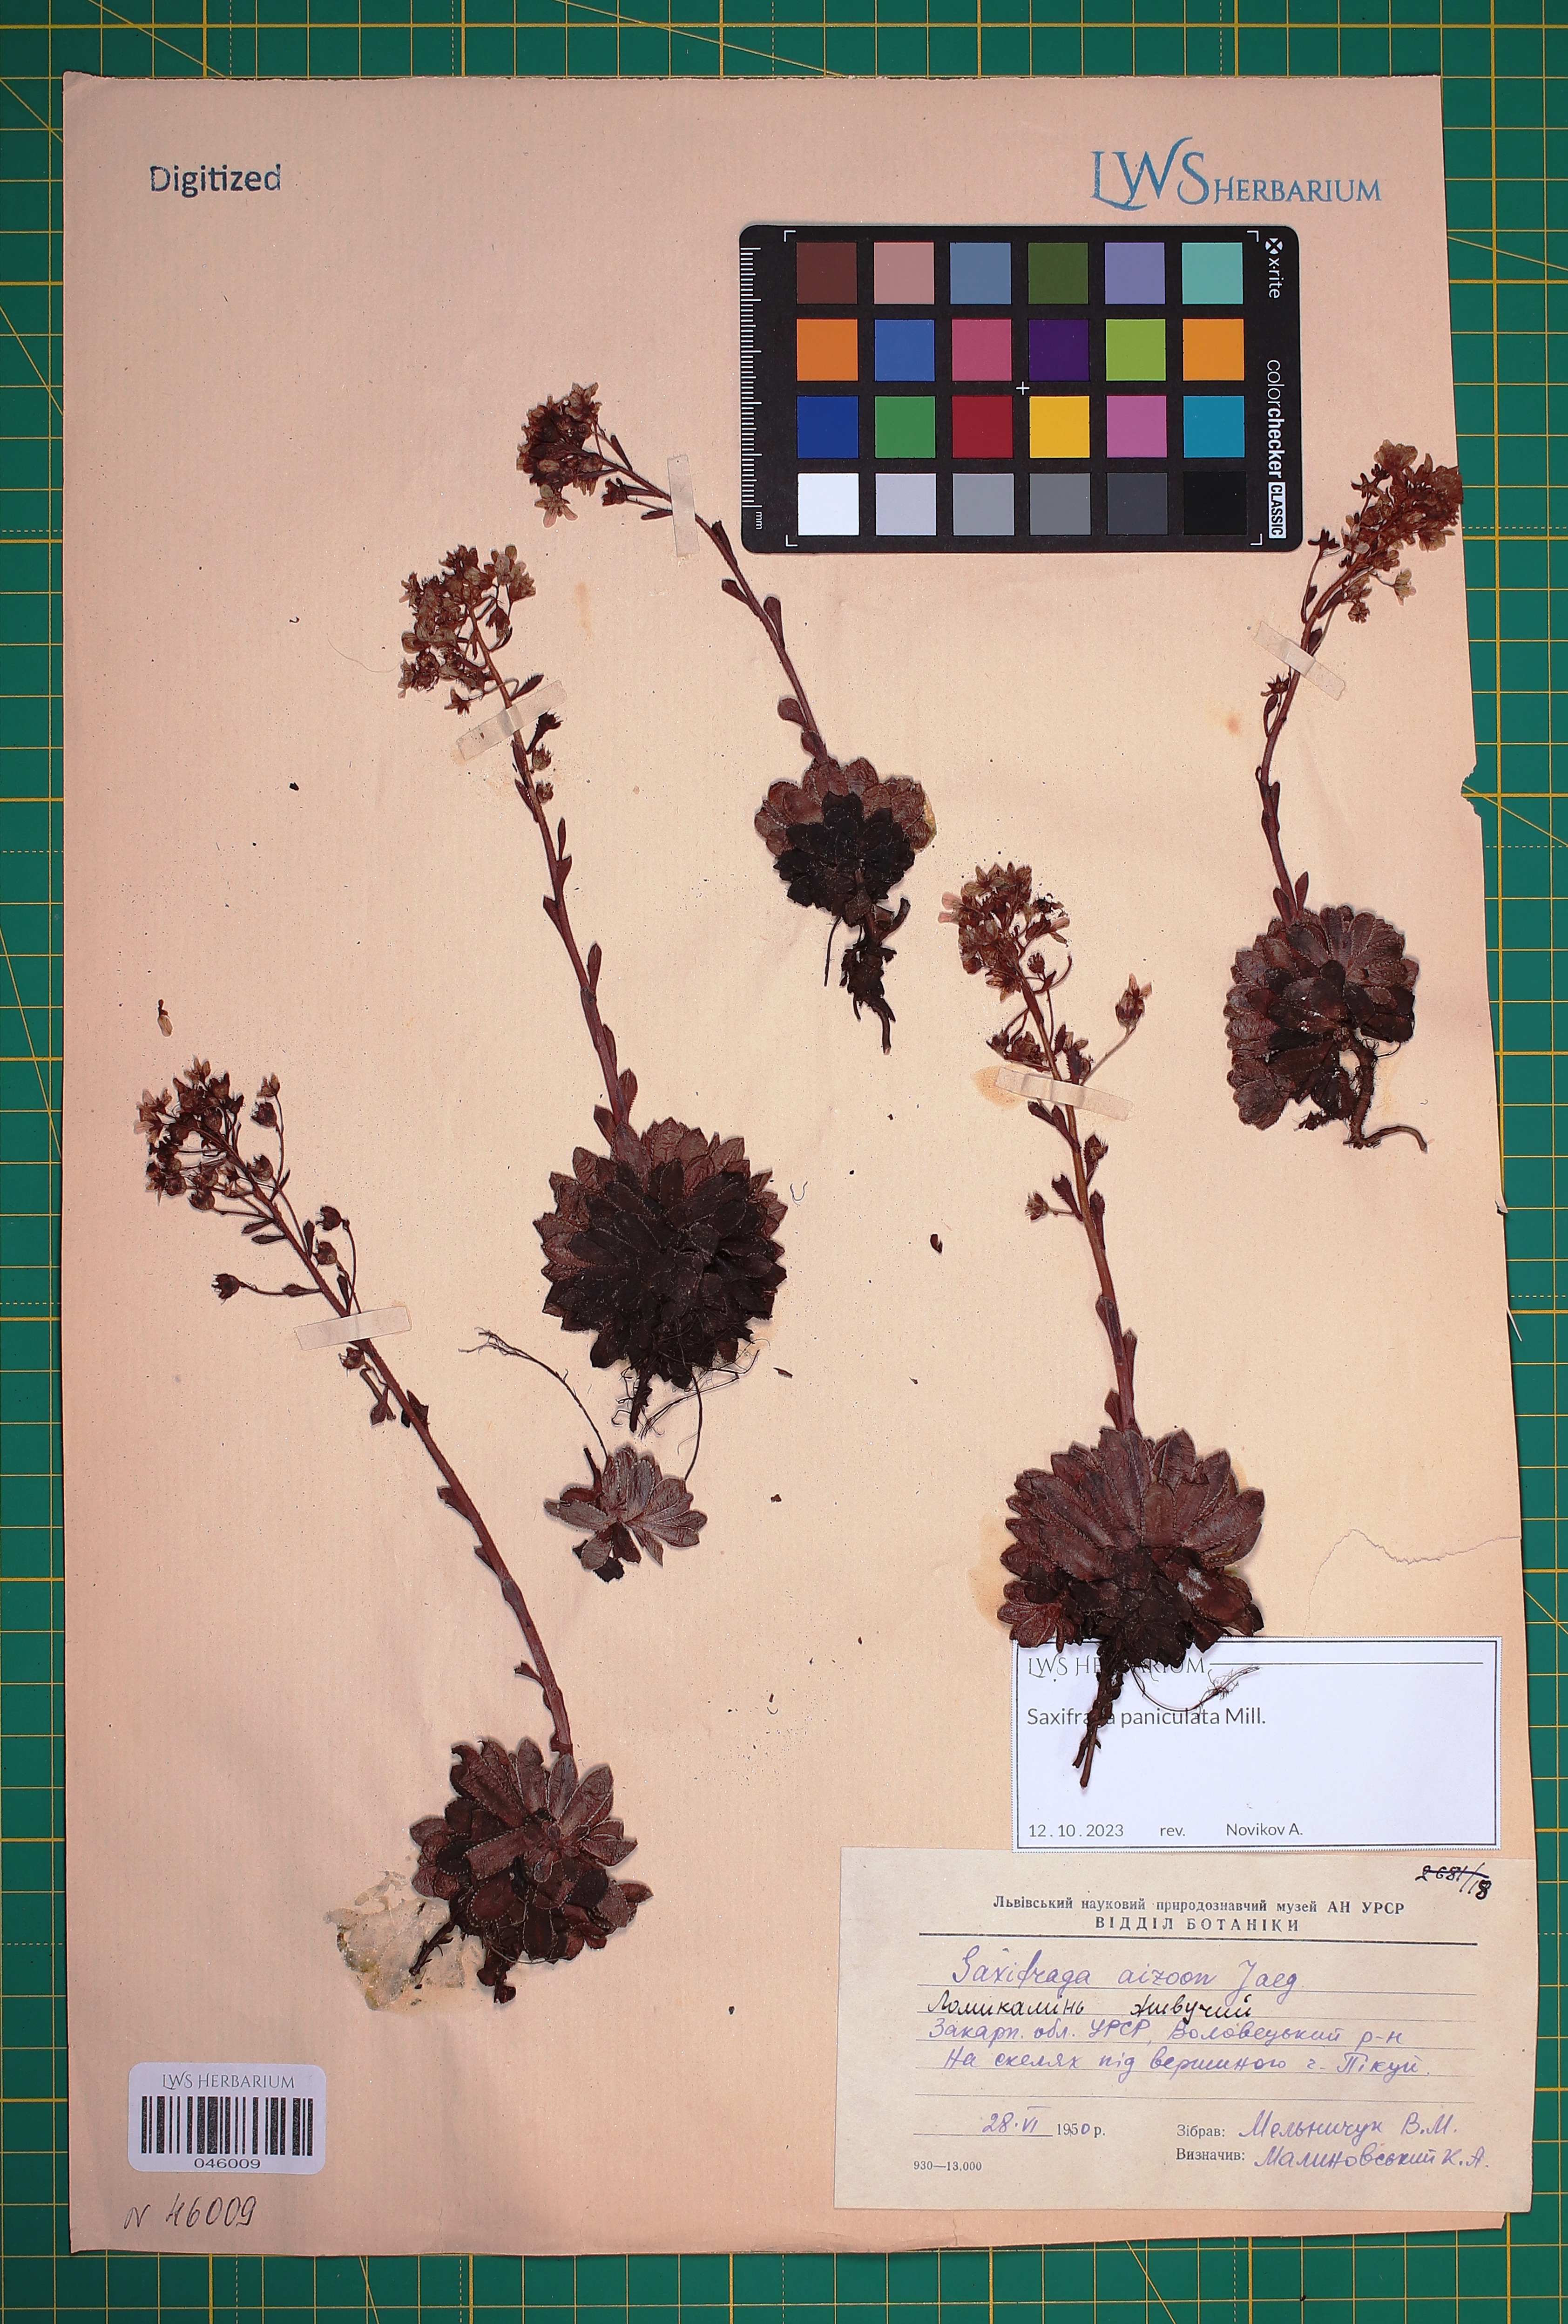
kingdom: Plantae
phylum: Tracheophyta
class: Magnoliopsida
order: Saxifragales
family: Saxifragaceae
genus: Saxifraga
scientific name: Saxifraga paniculata
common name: Livelong saxifrage
